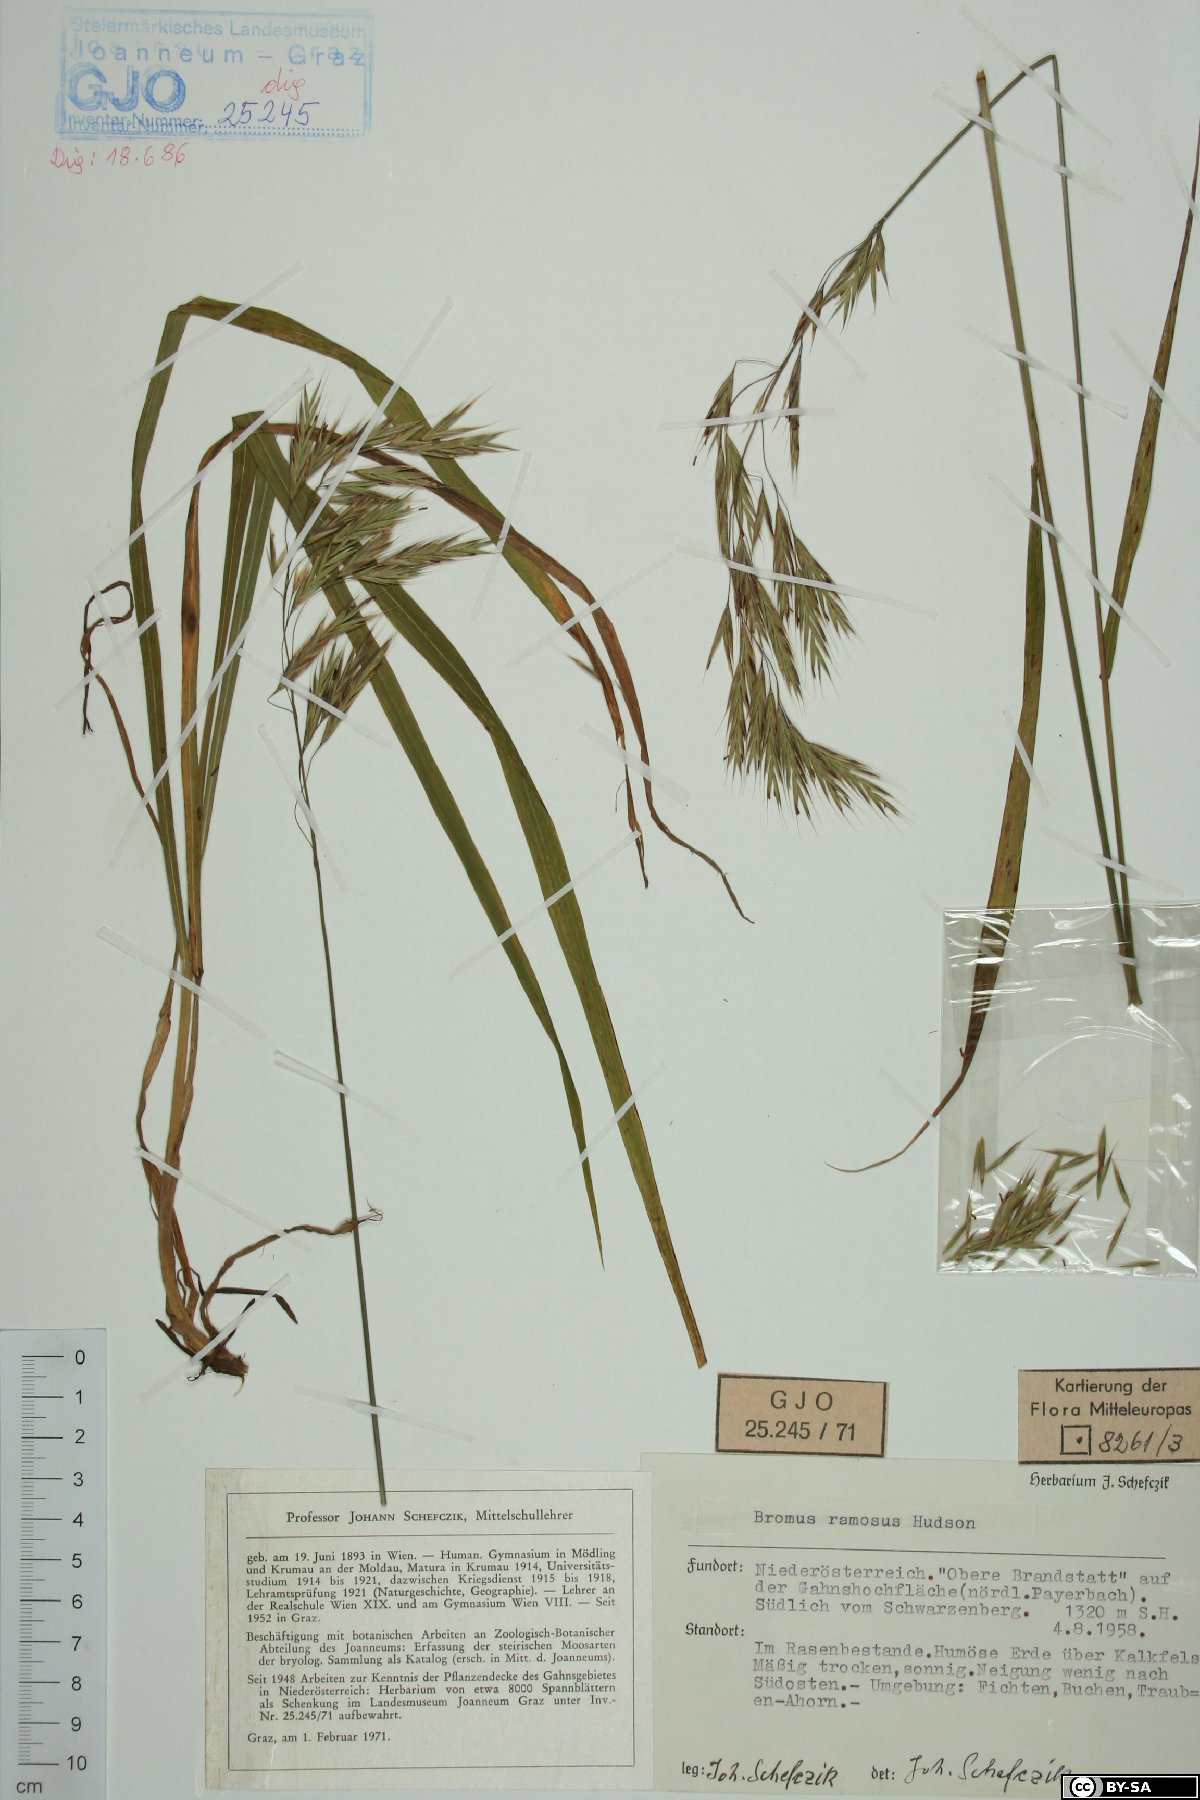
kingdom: Plantae
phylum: Tracheophyta
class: Liliopsida
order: Poales
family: Poaceae
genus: Bromus
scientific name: Bromus ramosus
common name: Hairy brome
